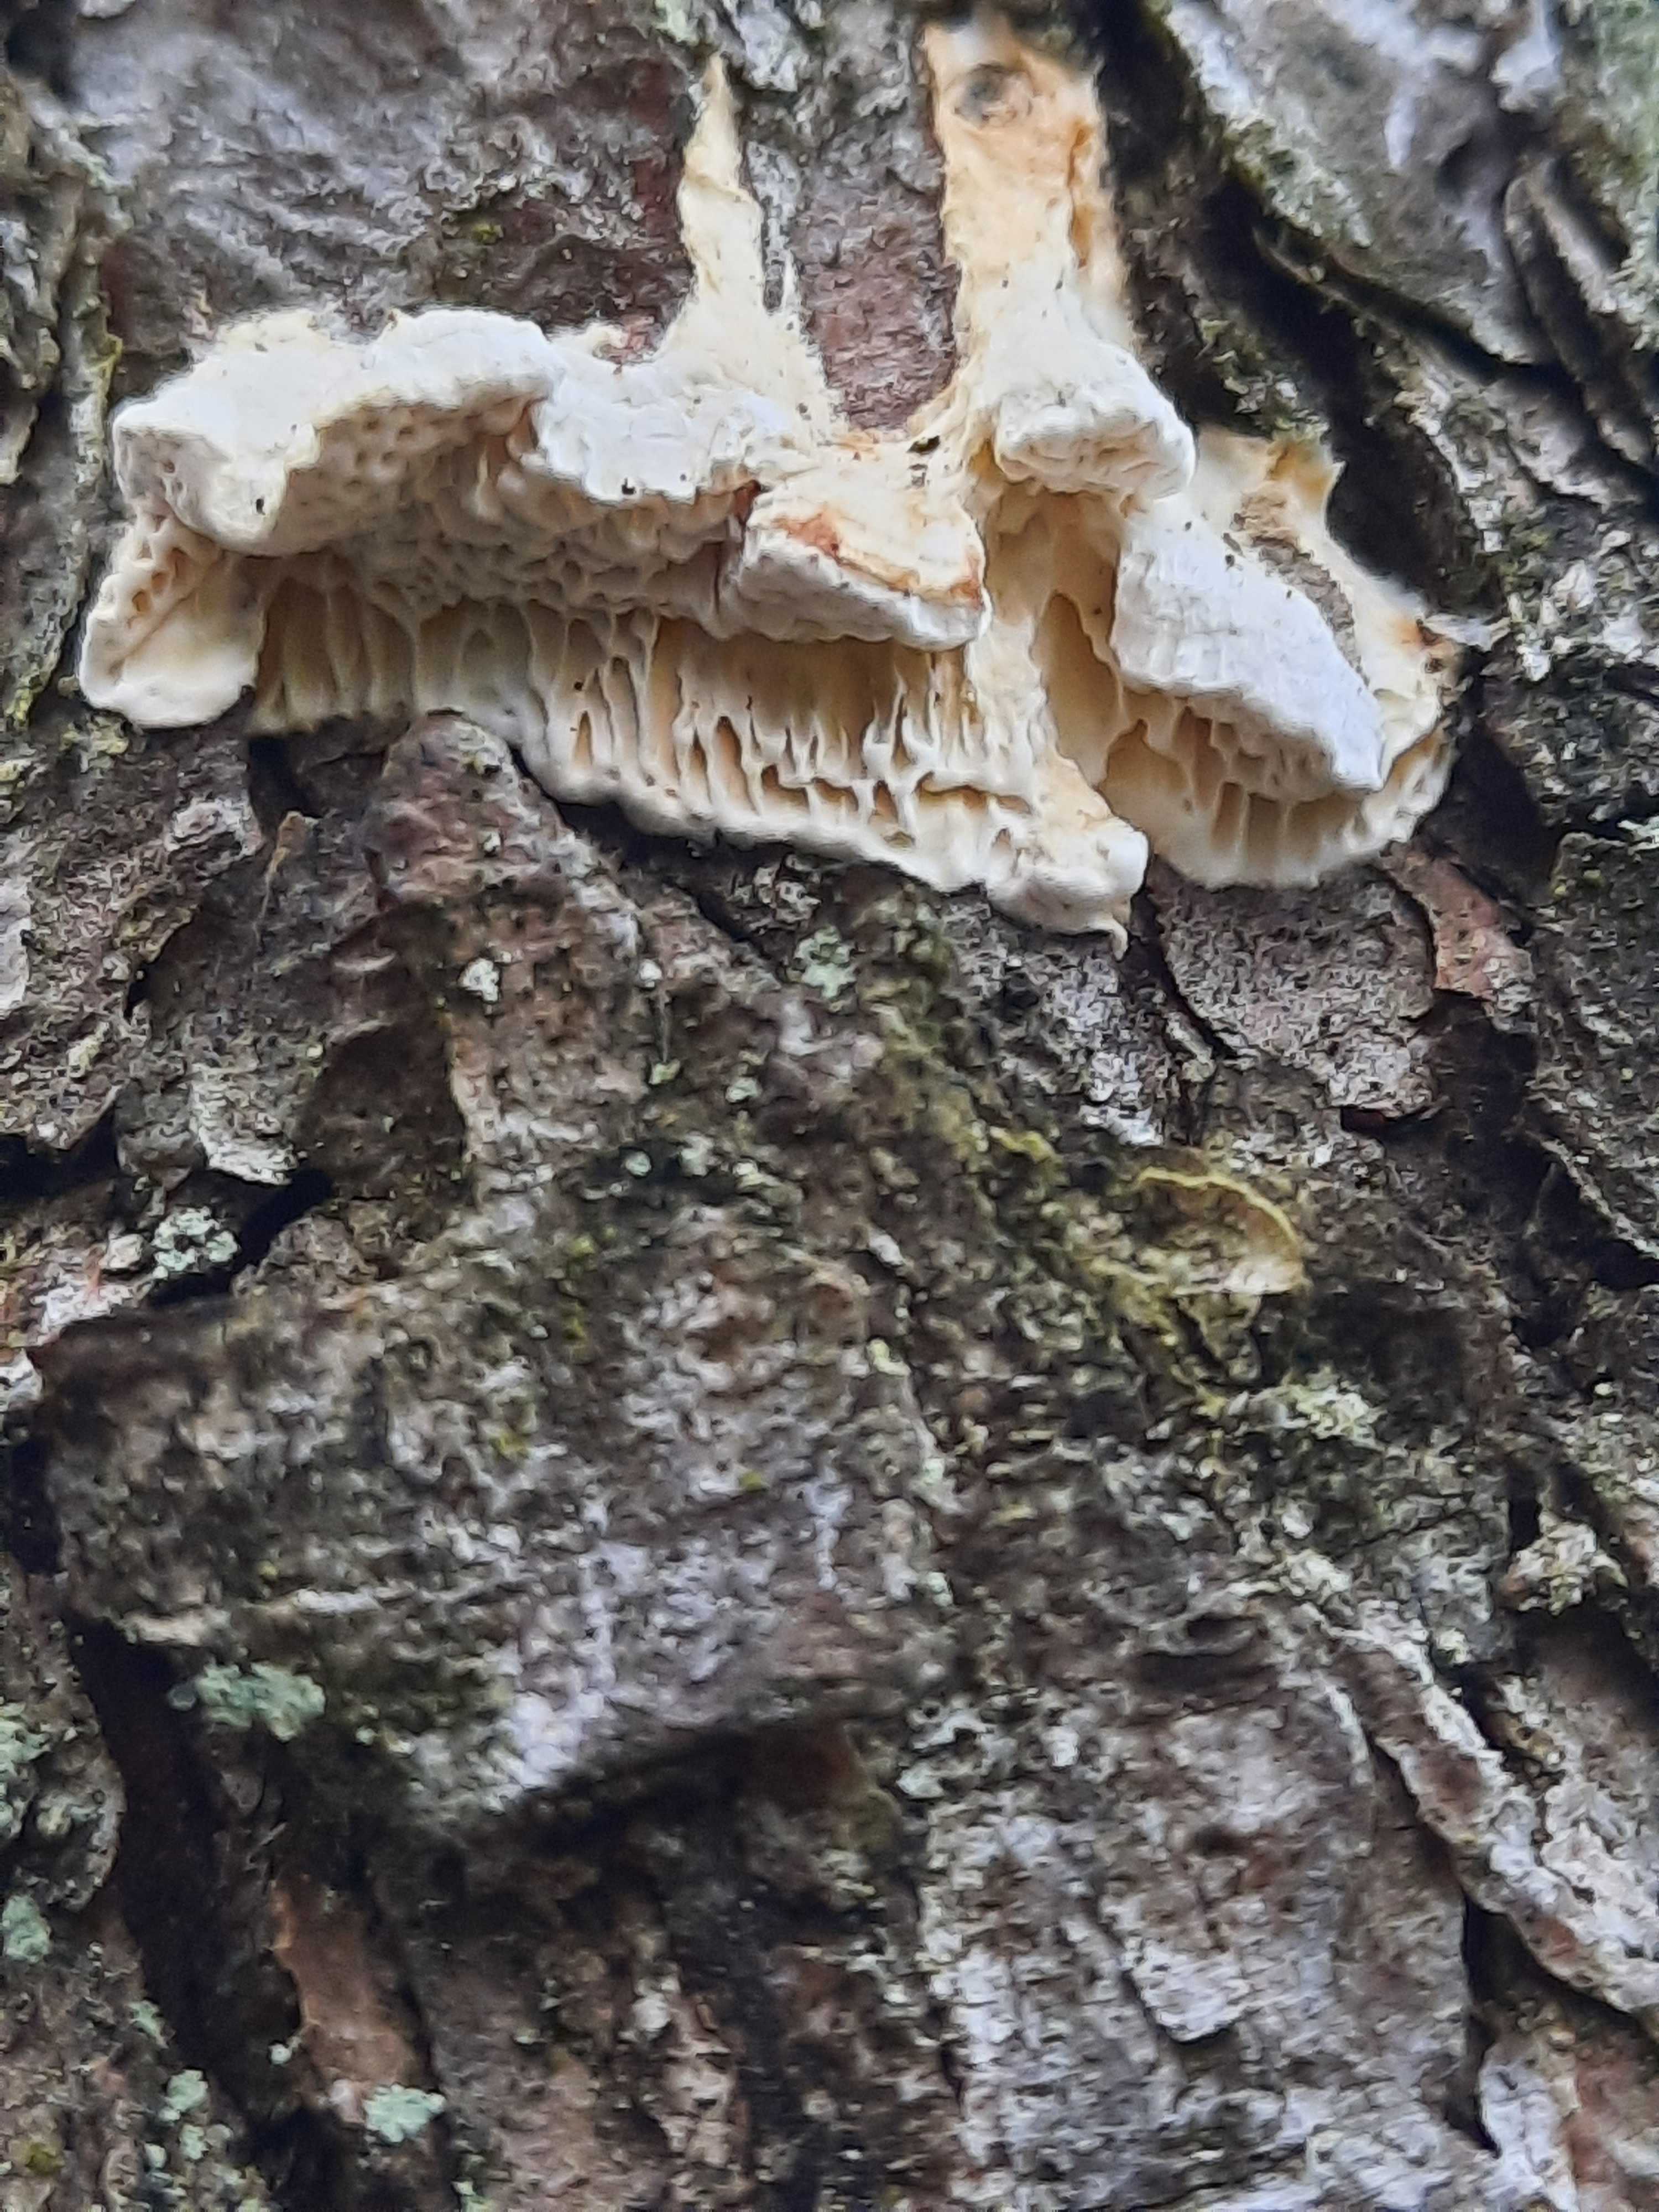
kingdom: Fungi
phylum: Basidiomycota
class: Agaricomycetes
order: Polyporales
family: Fomitopsidaceae
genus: Fomitopsis
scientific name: Fomitopsis
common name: fyrre-skiveporesvamp
